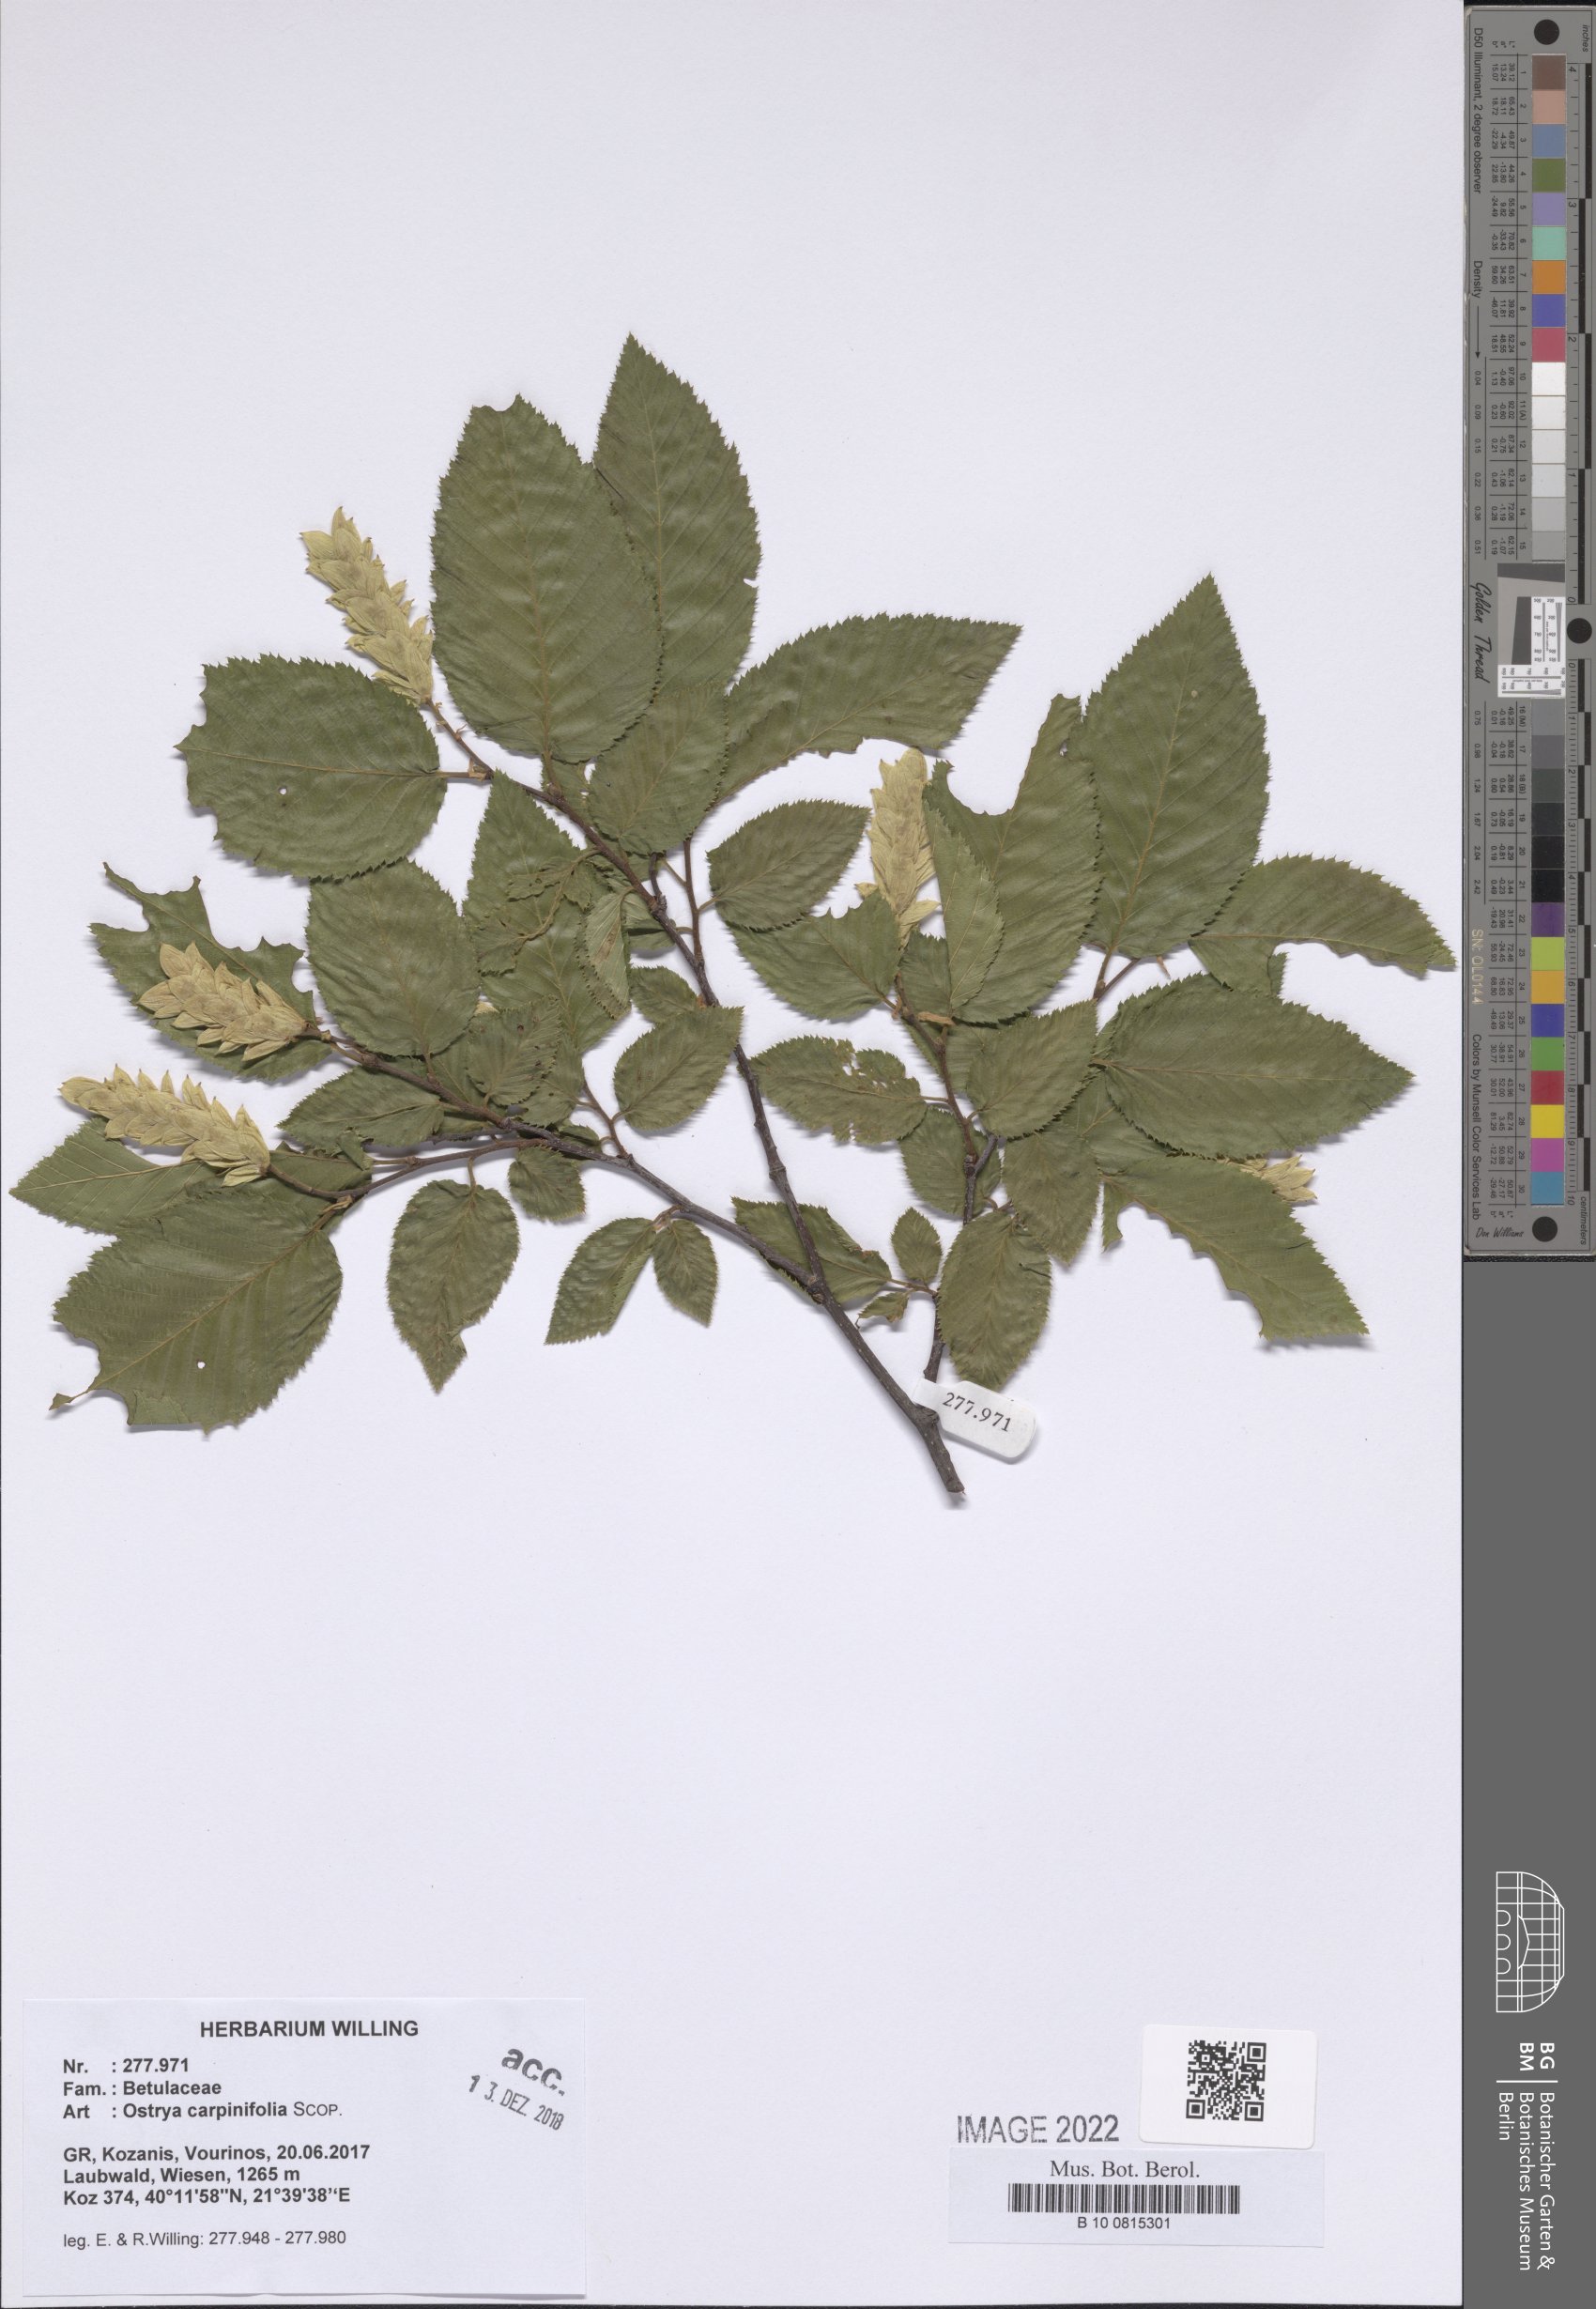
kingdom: Plantae
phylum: Tracheophyta
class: Magnoliopsida
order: Fagales
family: Betulaceae
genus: Ostrya
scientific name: Ostrya carpinifolia
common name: European hop-hornbeam
